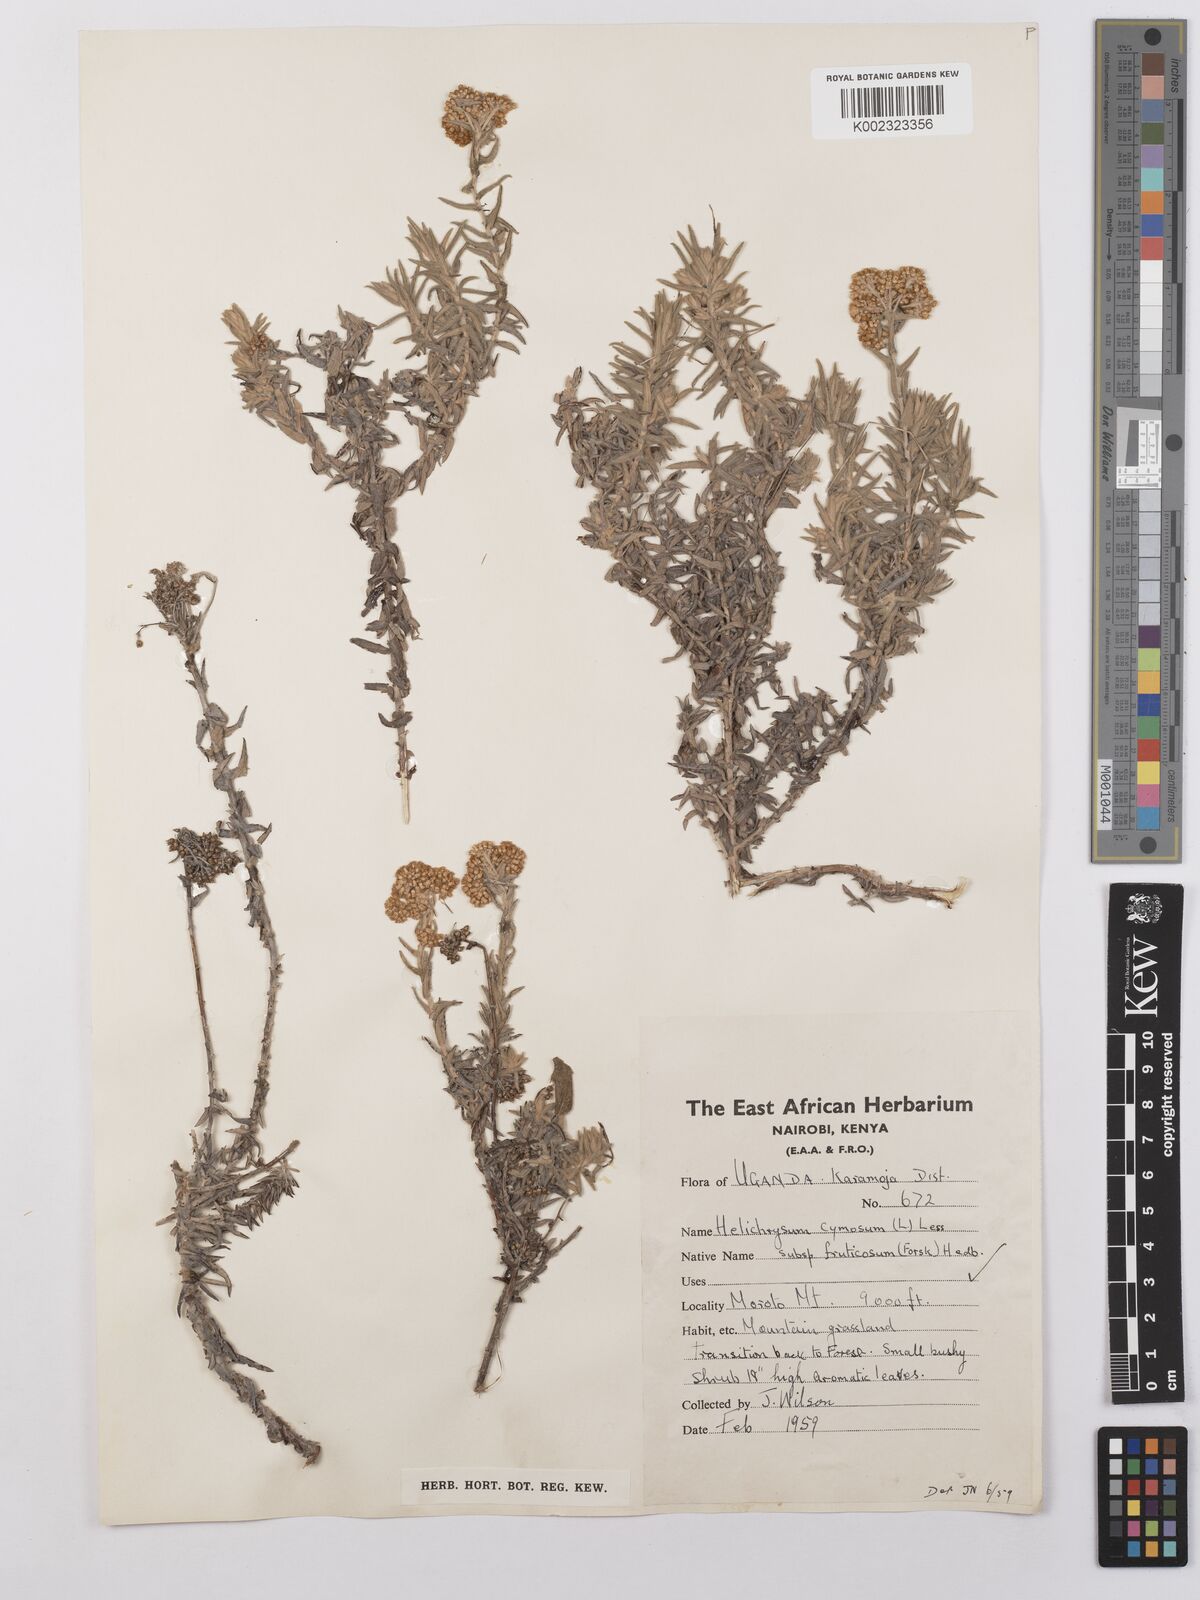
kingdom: Plantae
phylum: Tracheophyta
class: Magnoliopsida
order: Asterales
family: Asteraceae
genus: Helichrysum
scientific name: Helichrysum forskahlii
